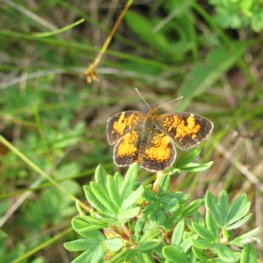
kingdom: Animalia
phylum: Arthropoda
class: Insecta
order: Lepidoptera
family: Nymphalidae
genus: Phyciodes
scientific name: Phyciodes tharos
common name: Northern Crescent
